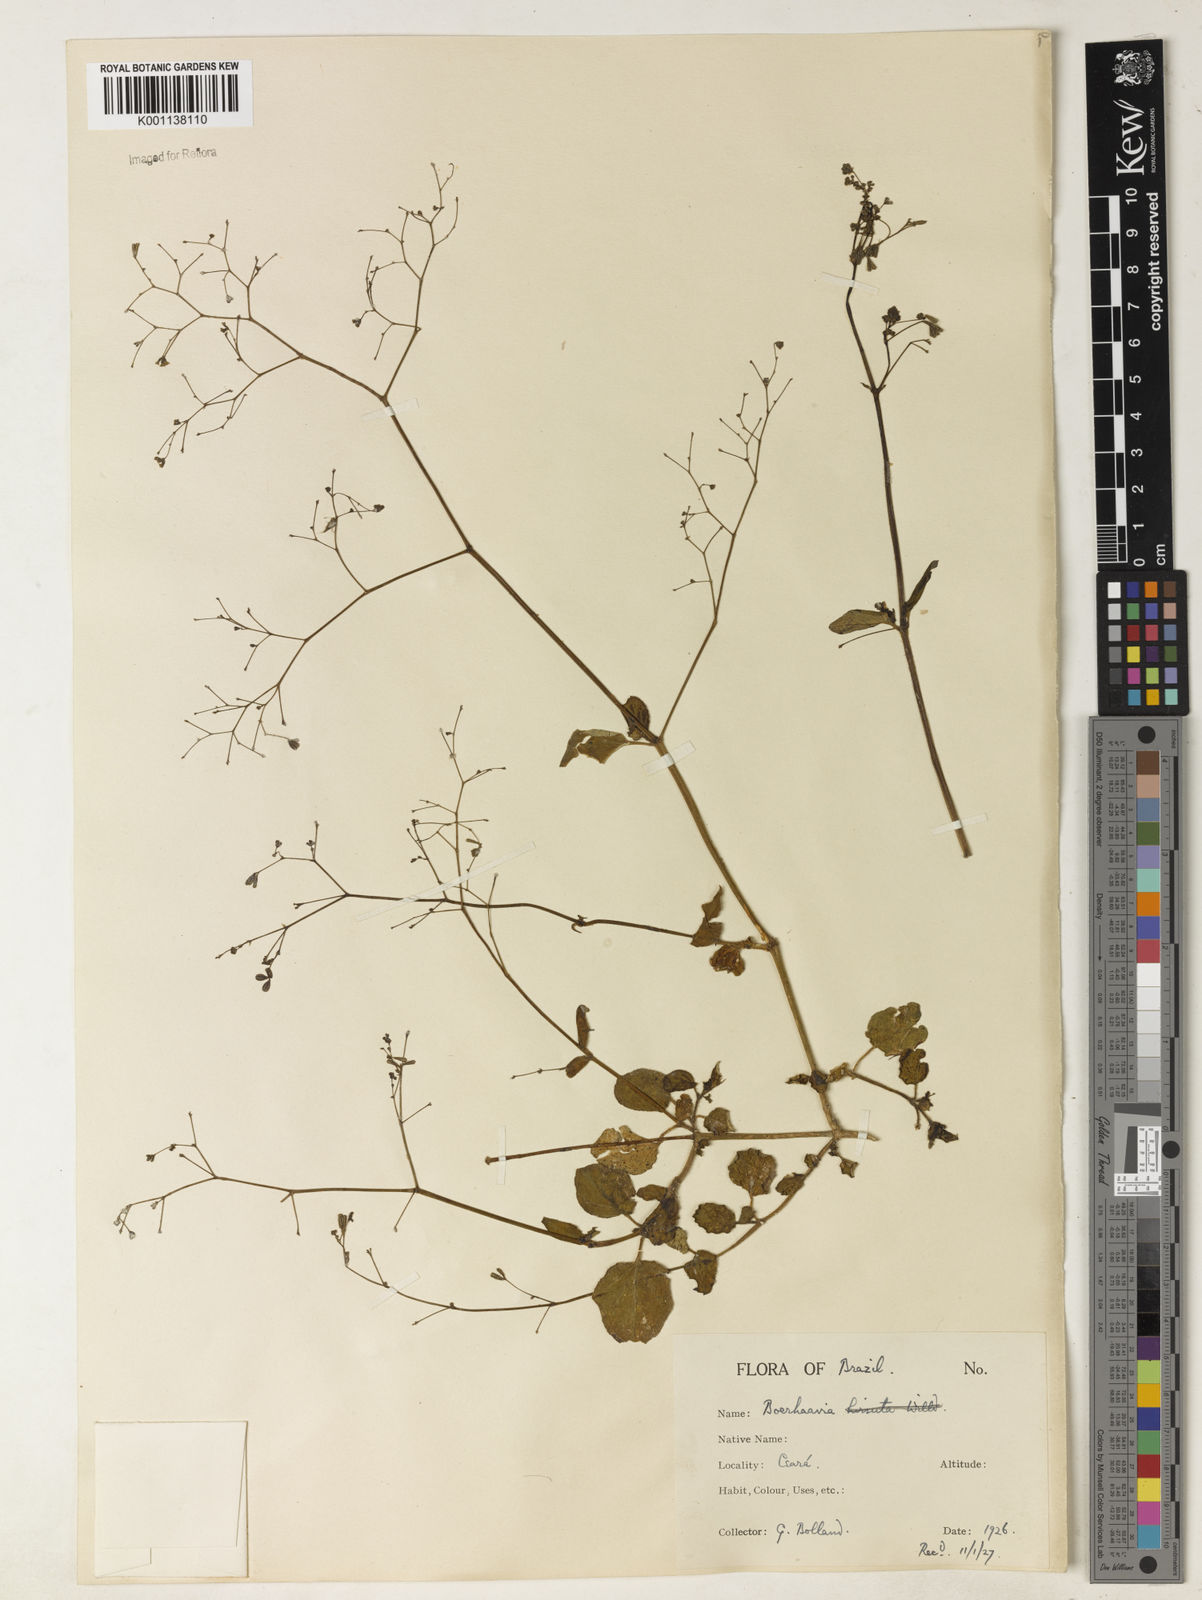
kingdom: Plantae
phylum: Tracheophyta
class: Magnoliopsida
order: Caryophyllales
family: Nyctaginaceae
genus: Boerhavia
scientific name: Boerhavia diffusa
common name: Red spiderling
